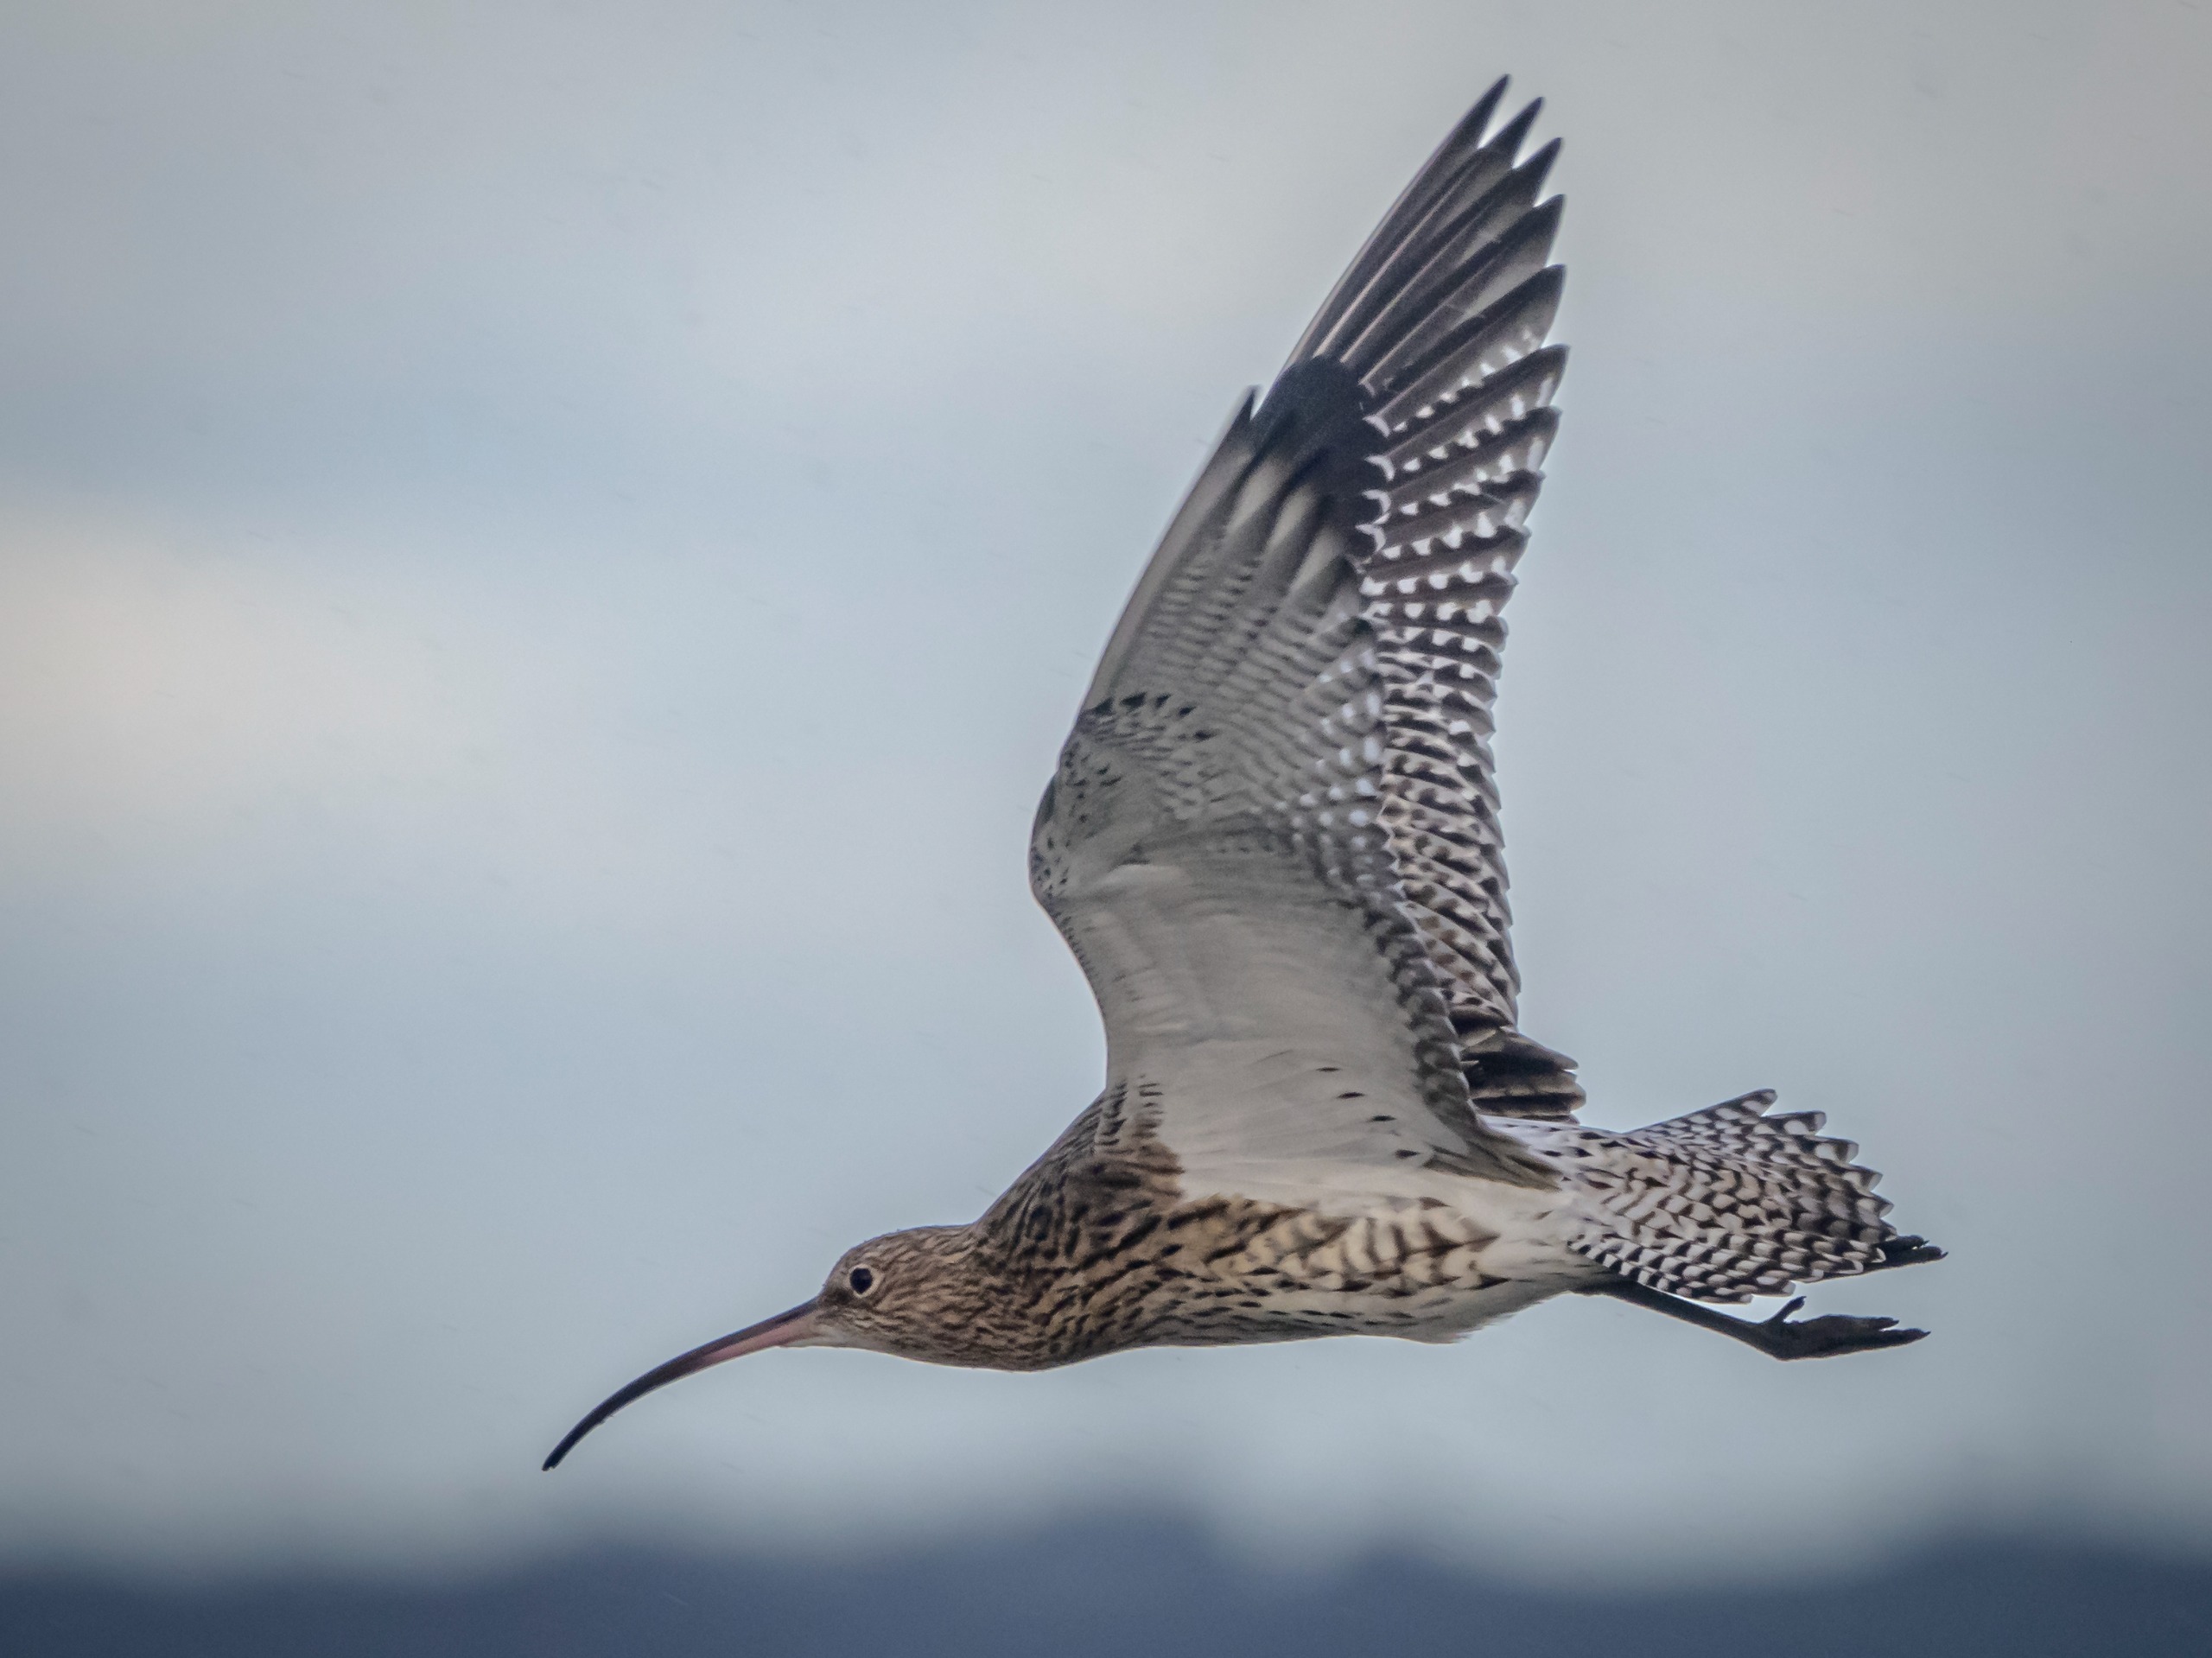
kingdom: Animalia
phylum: Chordata
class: Aves
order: Charadriiformes
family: Scolopacidae
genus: Numenius
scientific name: Numenius arquata
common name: Storspove
